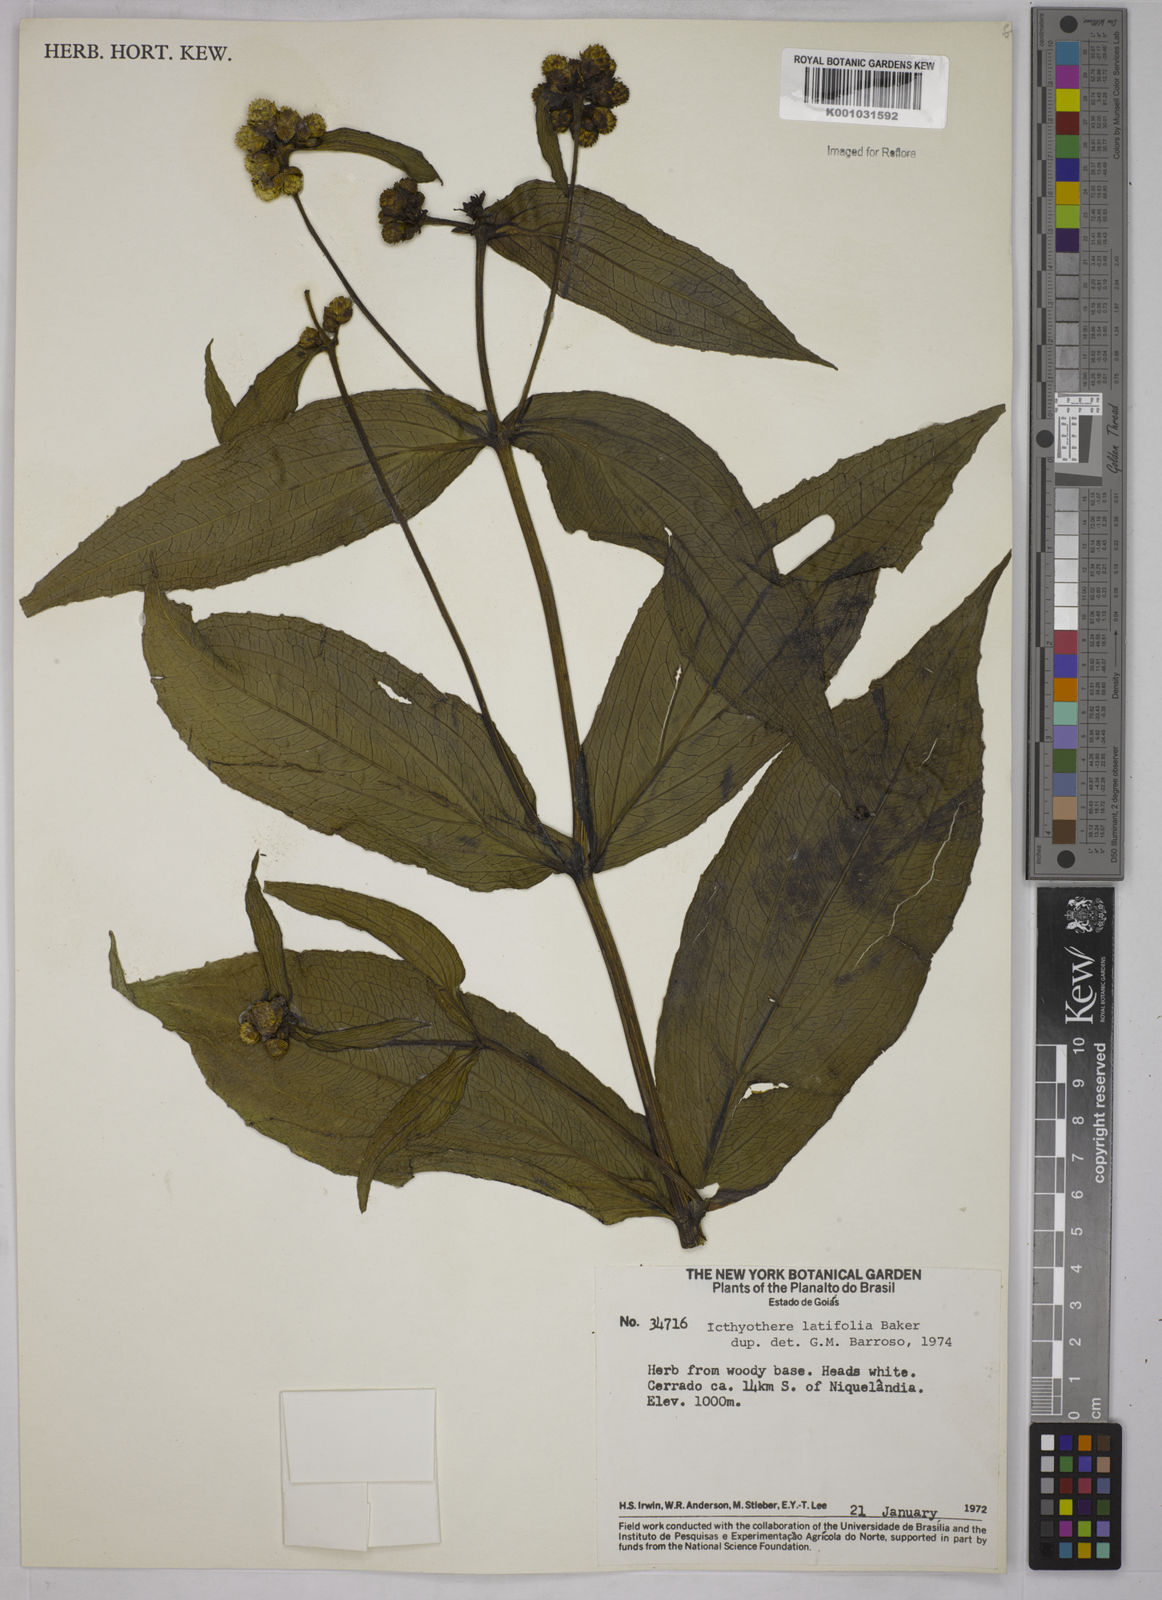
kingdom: Plantae
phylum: Tracheophyta
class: Magnoliopsida
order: Asterales
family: Asteraceae
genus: Ichthyothere
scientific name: Ichthyothere latifolia
